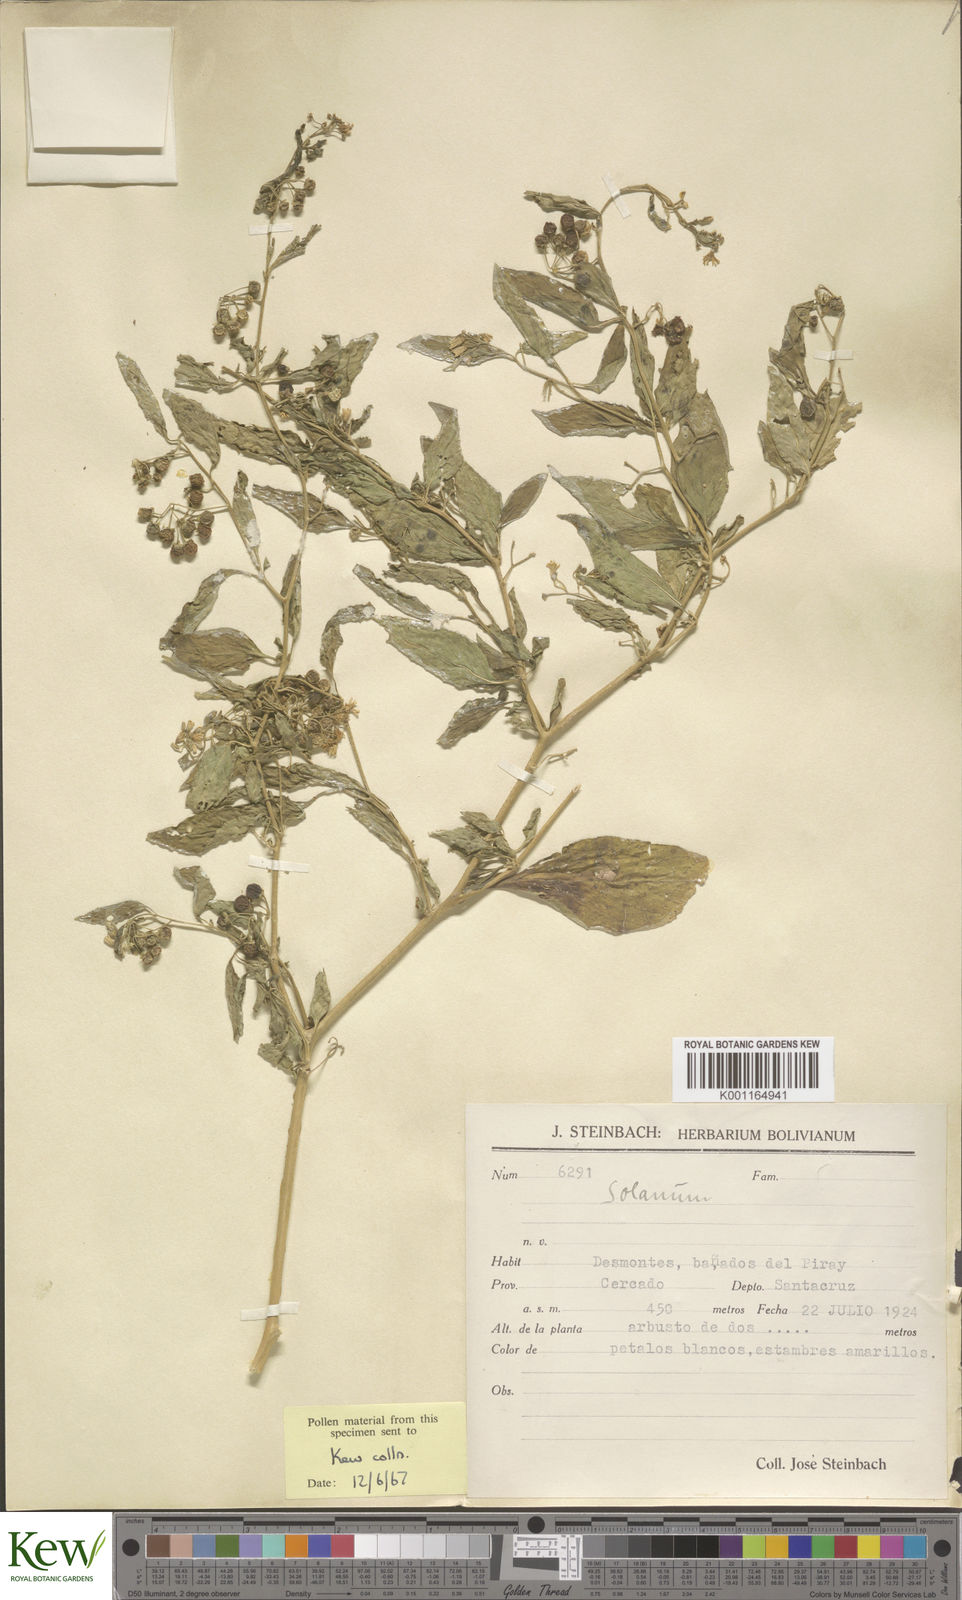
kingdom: Plantae
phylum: Tracheophyta
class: Magnoliopsida
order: Solanales
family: Solanaceae
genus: Solanum
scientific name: Solanum nudum
